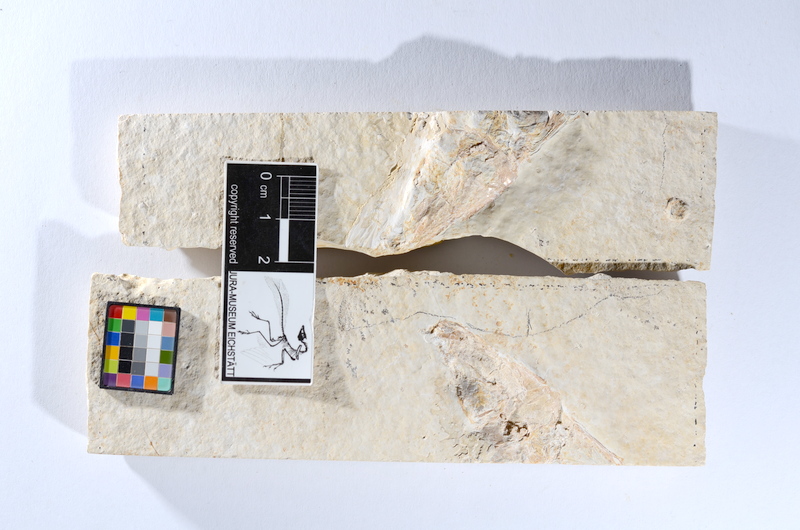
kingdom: Animalia
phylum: Chordata
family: Ascalaboidae
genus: Tharsis
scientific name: Tharsis dubius
